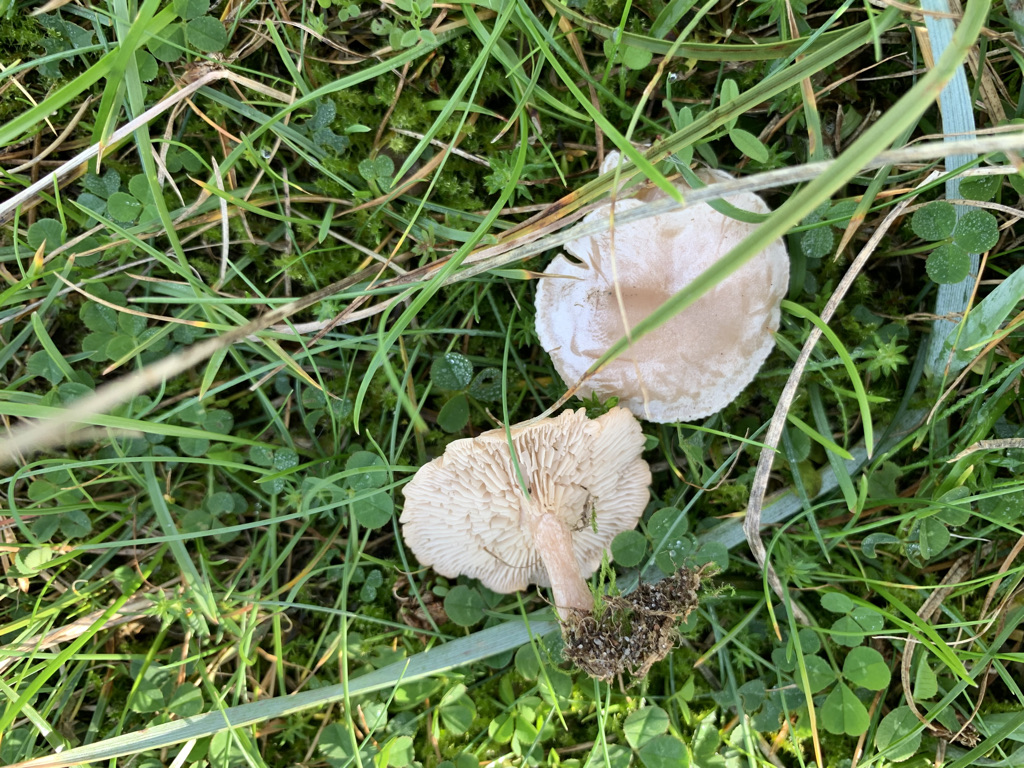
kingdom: Fungi
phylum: Basidiomycota
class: Agaricomycetes
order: Agaricales
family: Tricholomataceae
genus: Clitocybe
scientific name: Clitocybe rivulosa
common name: eng-tragthat
